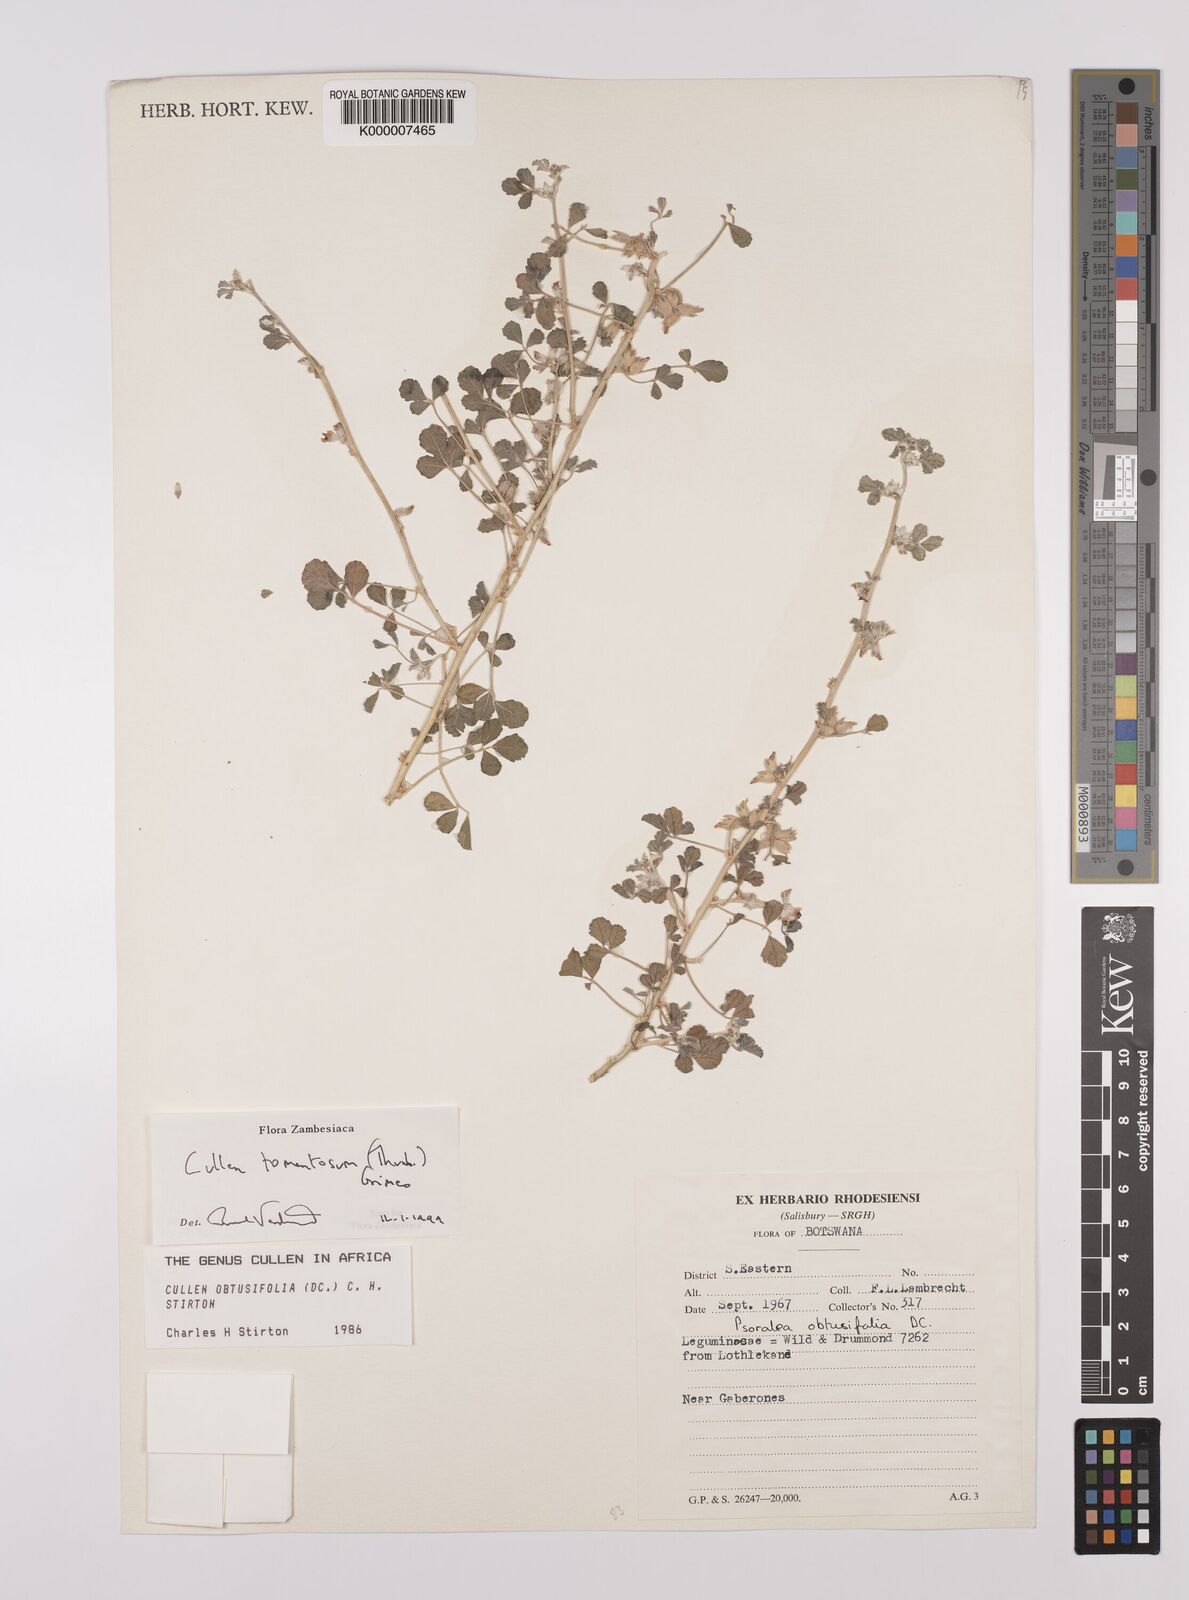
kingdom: Plantae
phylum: Tracheophyta
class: Magnoliopsida
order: Fabales
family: Fabaceae
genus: Cullen
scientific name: Cullen tomentosum
